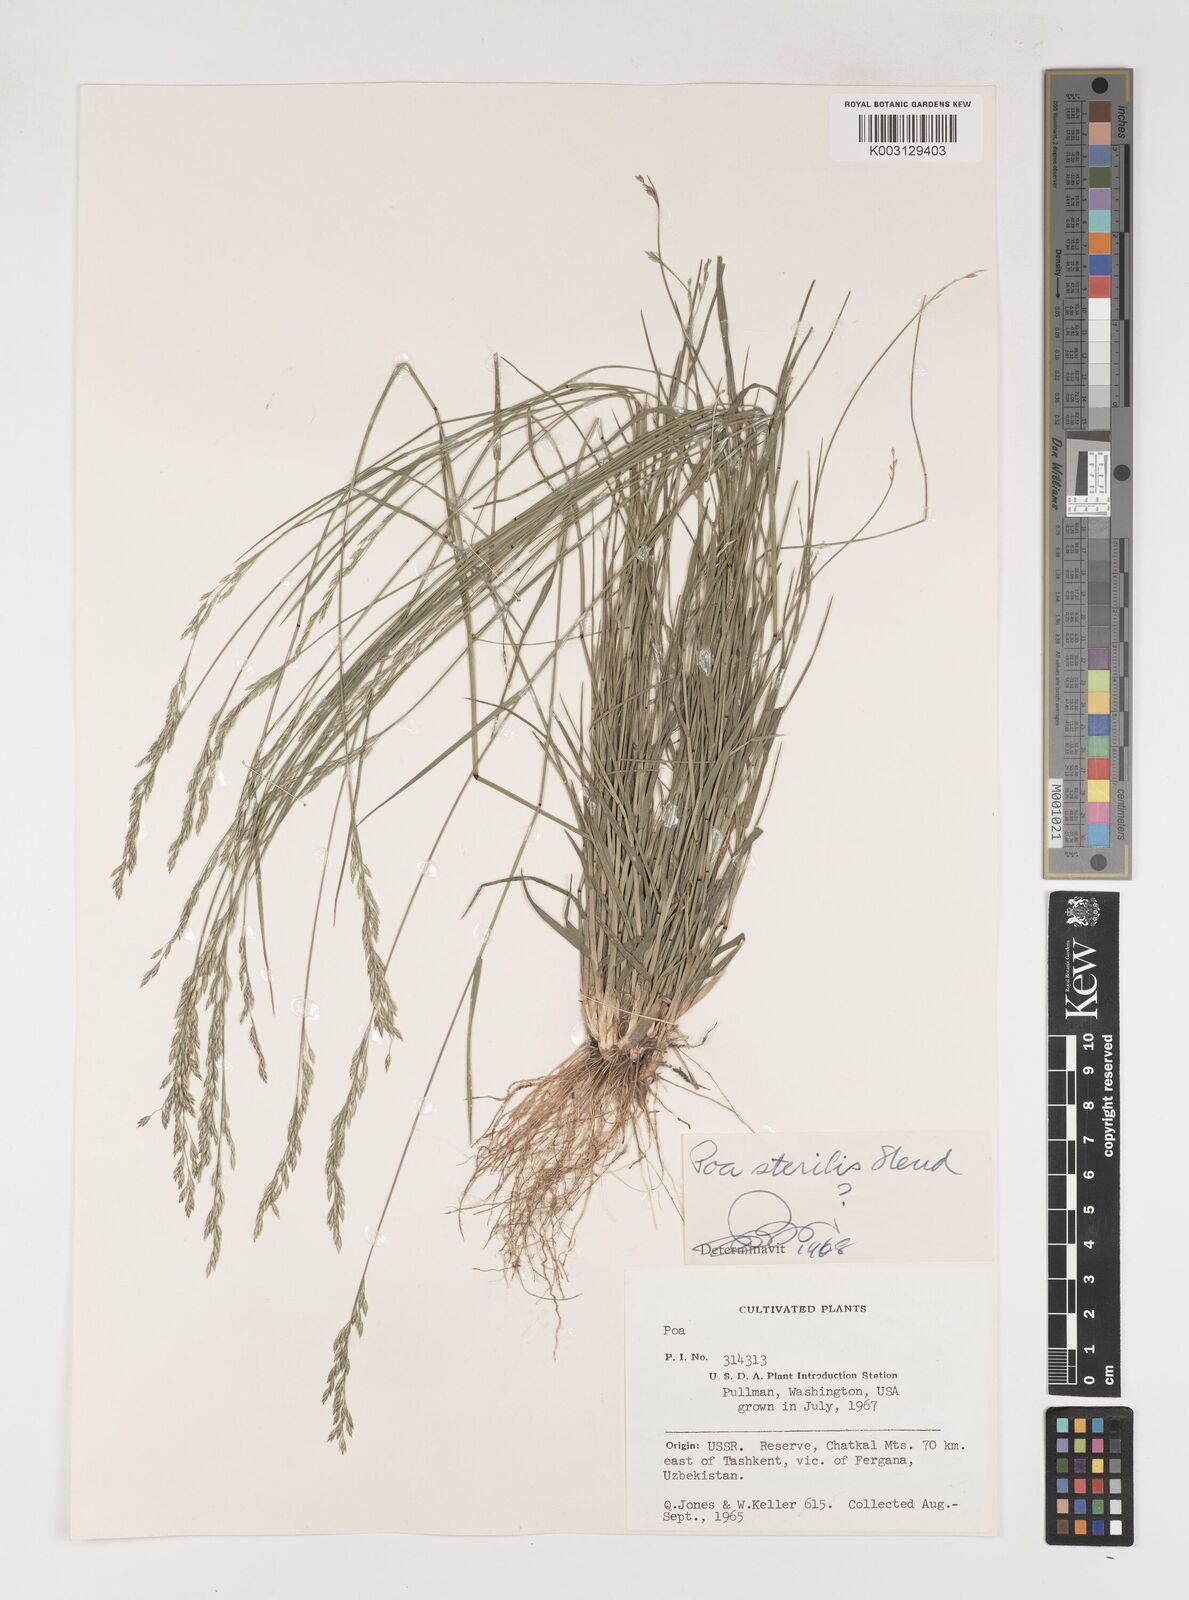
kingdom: Plantae
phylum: Tracheophyta
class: Liliopsida
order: Poales
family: Poaceae
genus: Poa
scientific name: Poa sterilis
